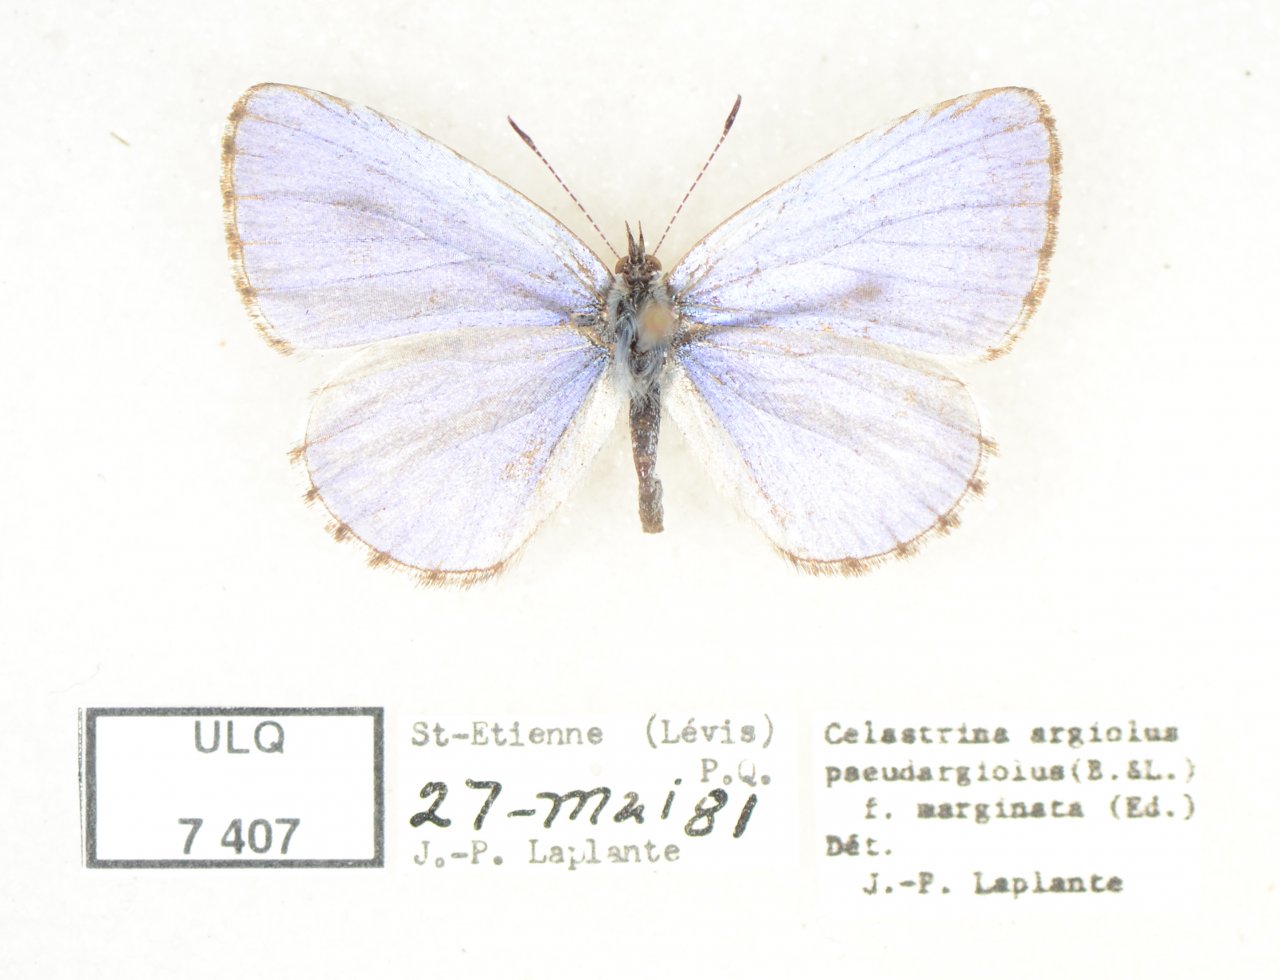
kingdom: Animalia
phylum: Arthropoda
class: Insecta
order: Lepidoptera
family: Lycaenidae
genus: Celastrina
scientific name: Celastrina lucia
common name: Northern Spring Azure
